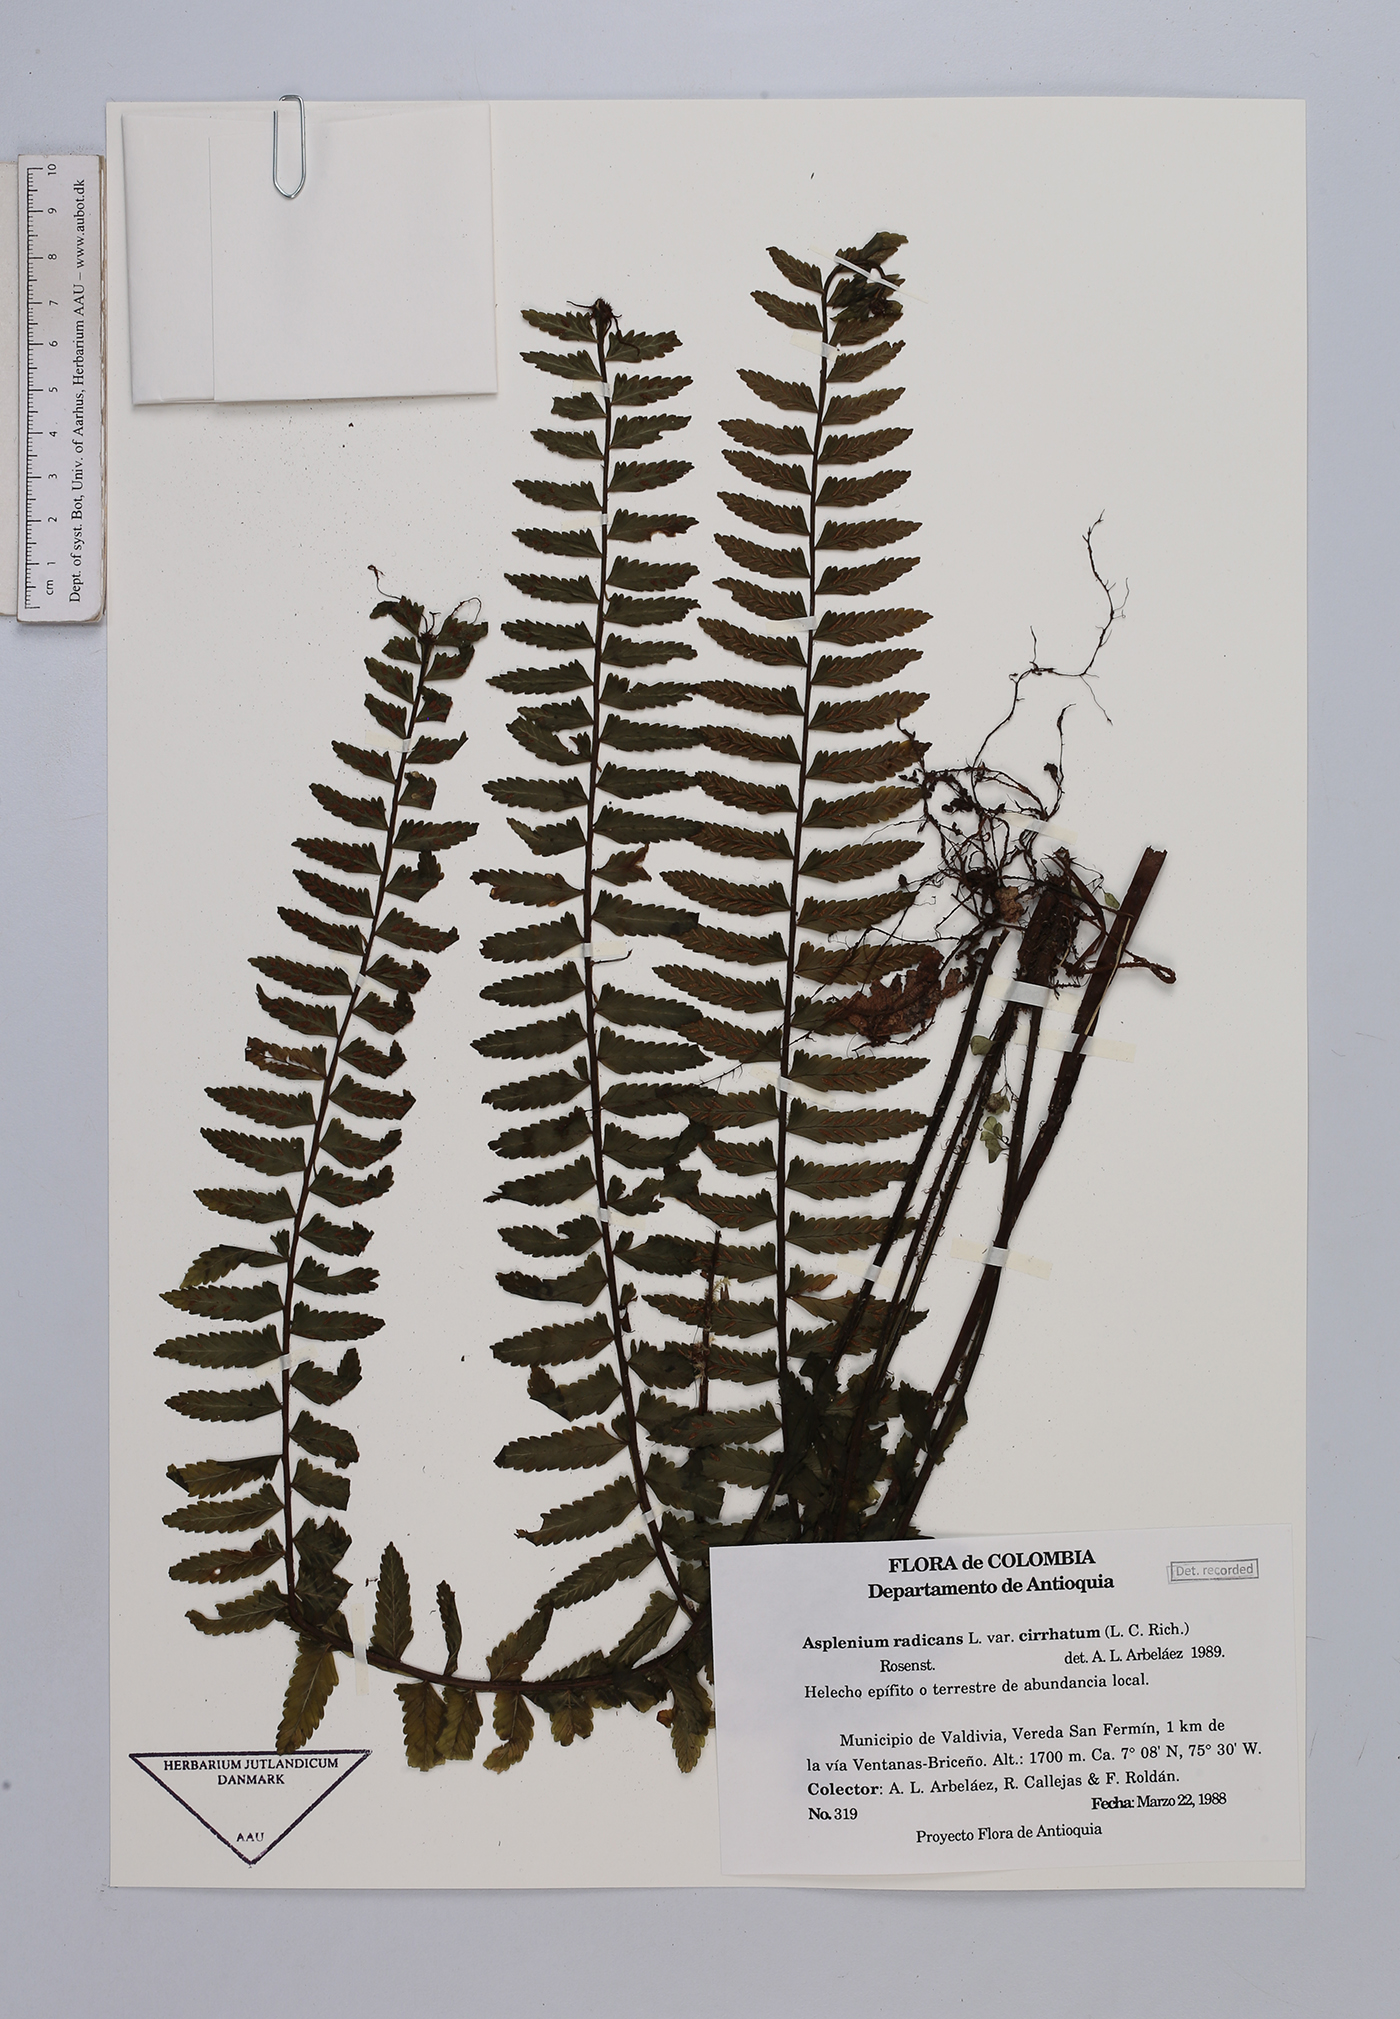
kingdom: Plantae
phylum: Tracheophyta
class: Polypodiopsida
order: Polypodiales
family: Aspleniaceae
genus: Asplenium
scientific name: Asplenium pteropus
